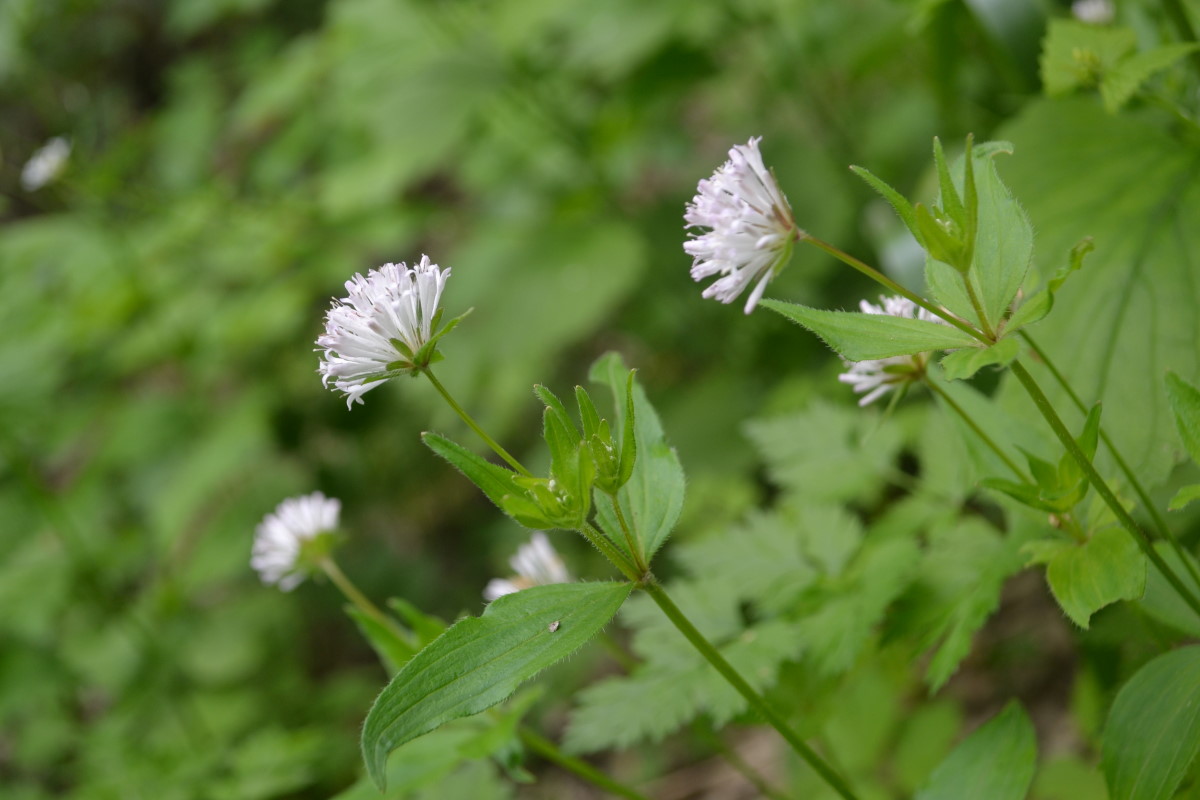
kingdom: Plantae
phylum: Tracheophyta
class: Magnoliopsida
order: Gentianales
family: Rubiaceae
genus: Asperula
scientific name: Asperula taurina
